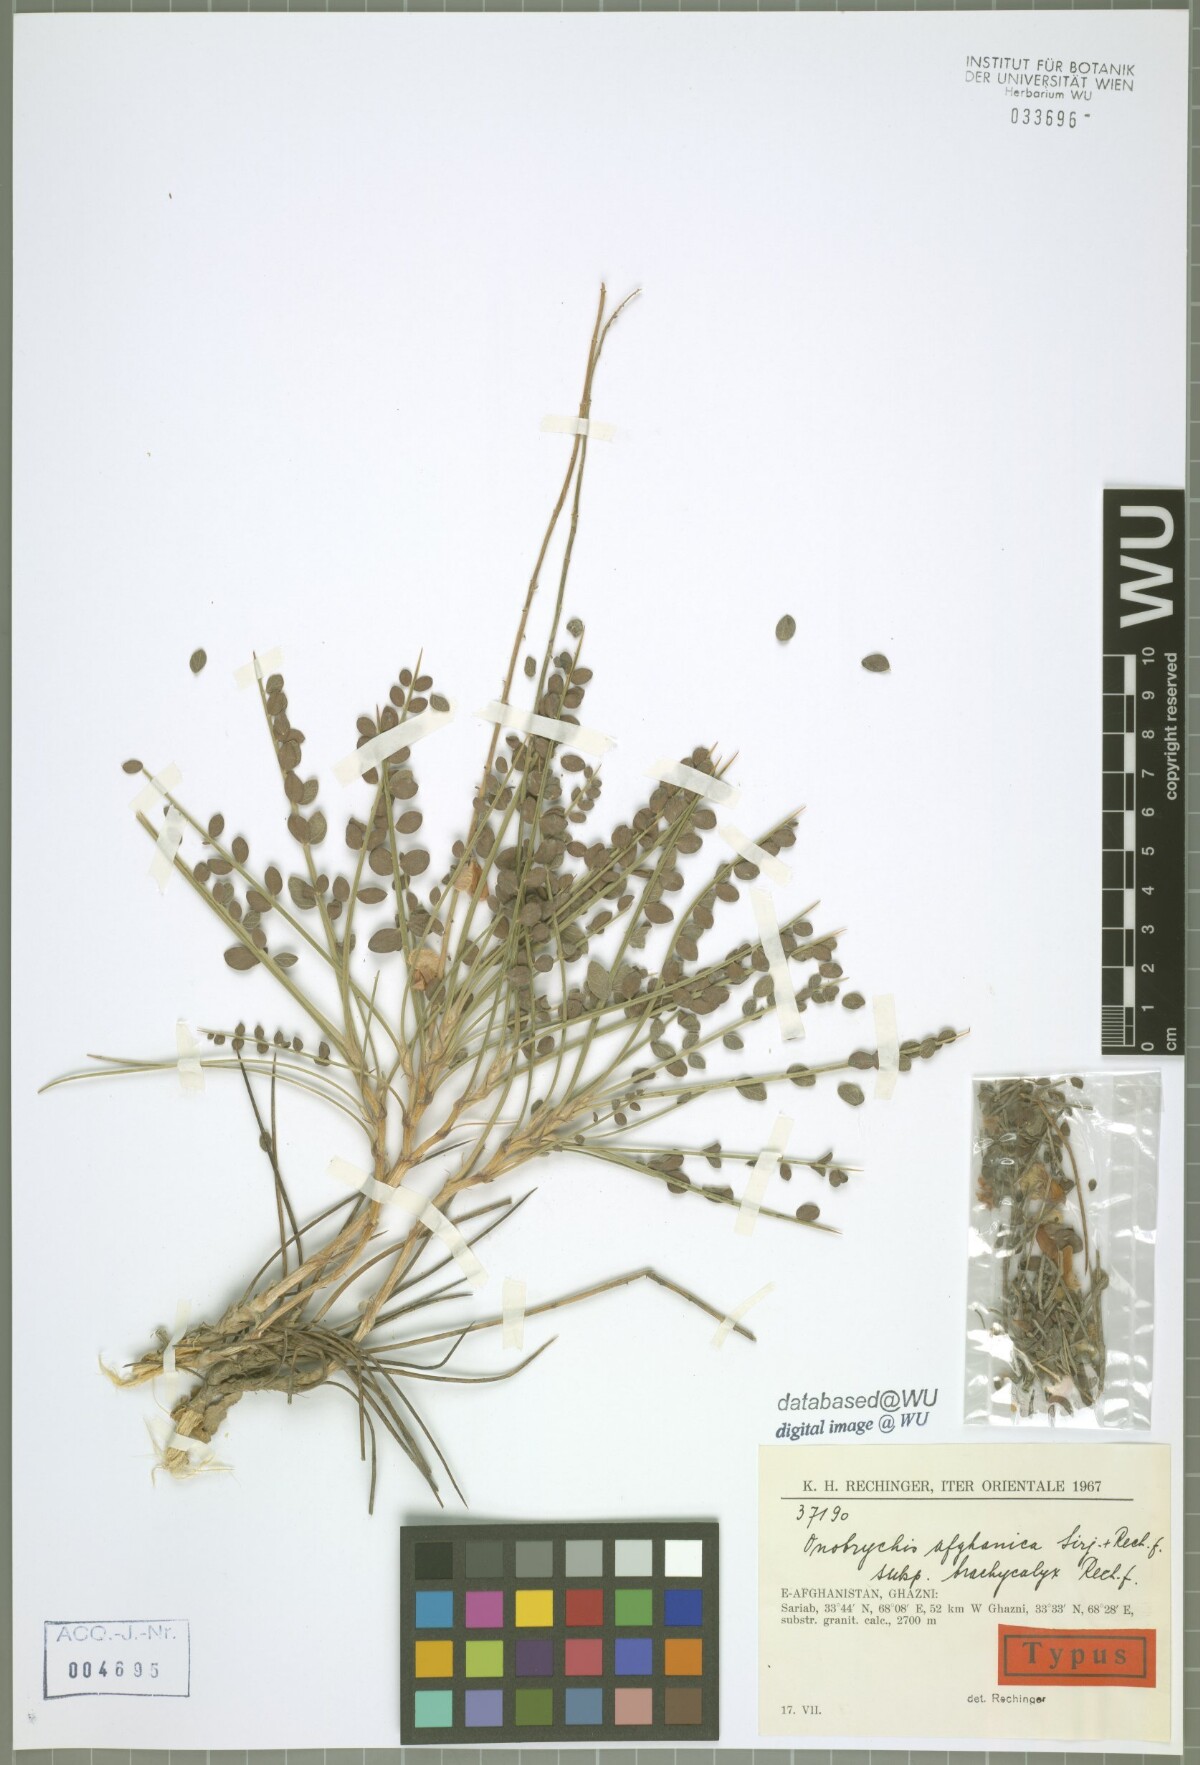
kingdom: Plantae
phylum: Tracheophyta
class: Magnoliopsida
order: Fabales
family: Fabaceae
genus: Onobrychis
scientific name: Onobrychis afghanica
